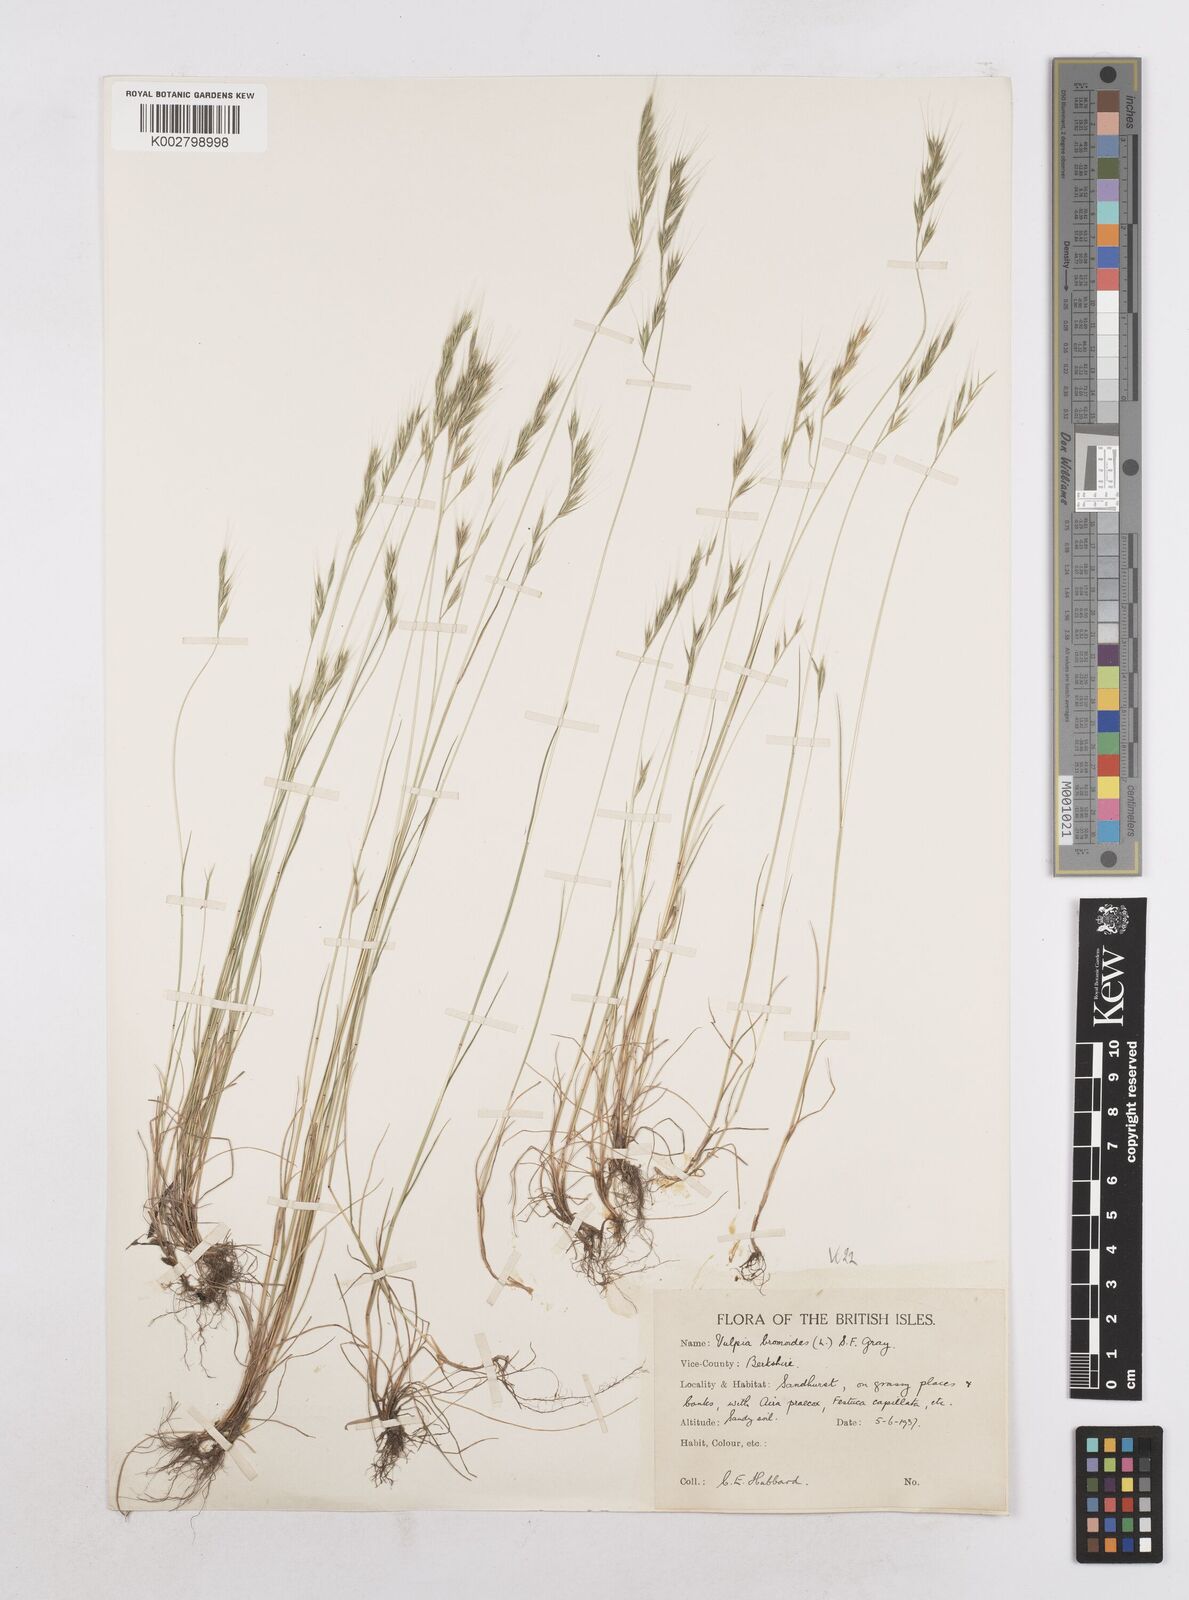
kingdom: Plantae
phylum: Tracheophyta
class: Liliopsida
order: Poales
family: Poaceae
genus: Festuca
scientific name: Festuca bromoides
